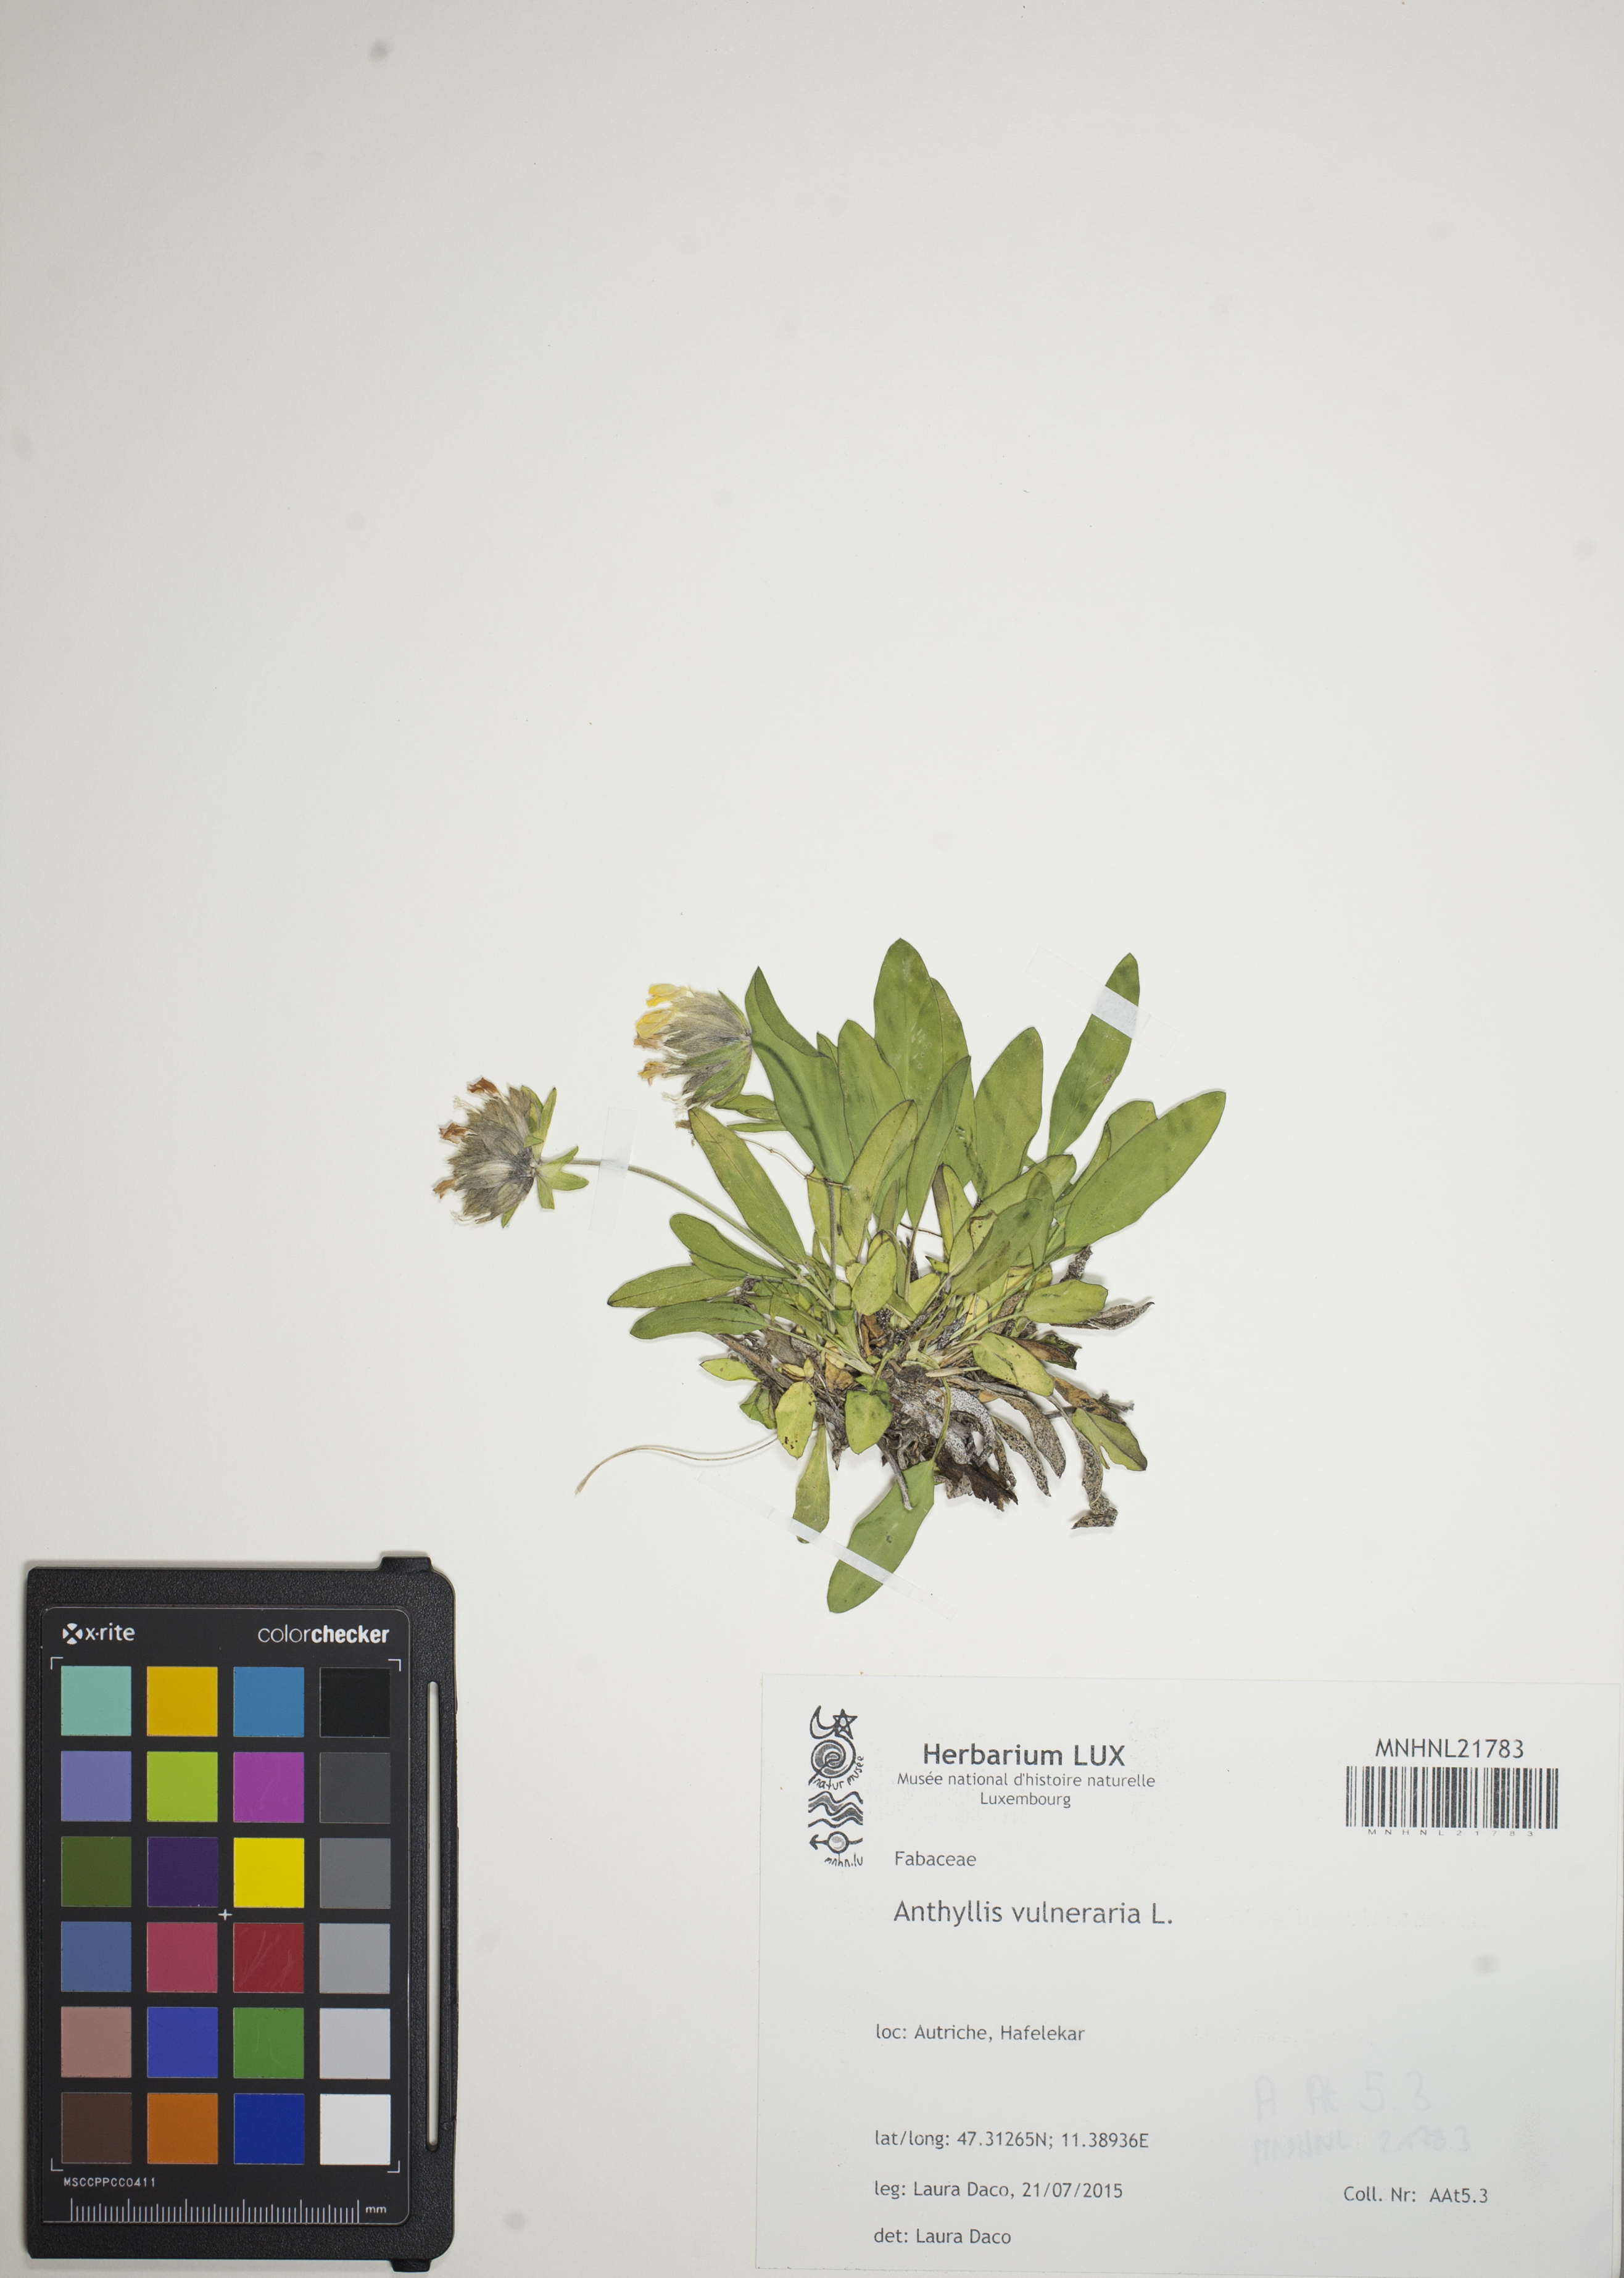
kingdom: Plantae
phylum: Tracheophyta
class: Magnoliopsida
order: Fabales
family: Fabaceae
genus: Anthyllis
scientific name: Anthyllis vulneraria
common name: Kidney vetch
